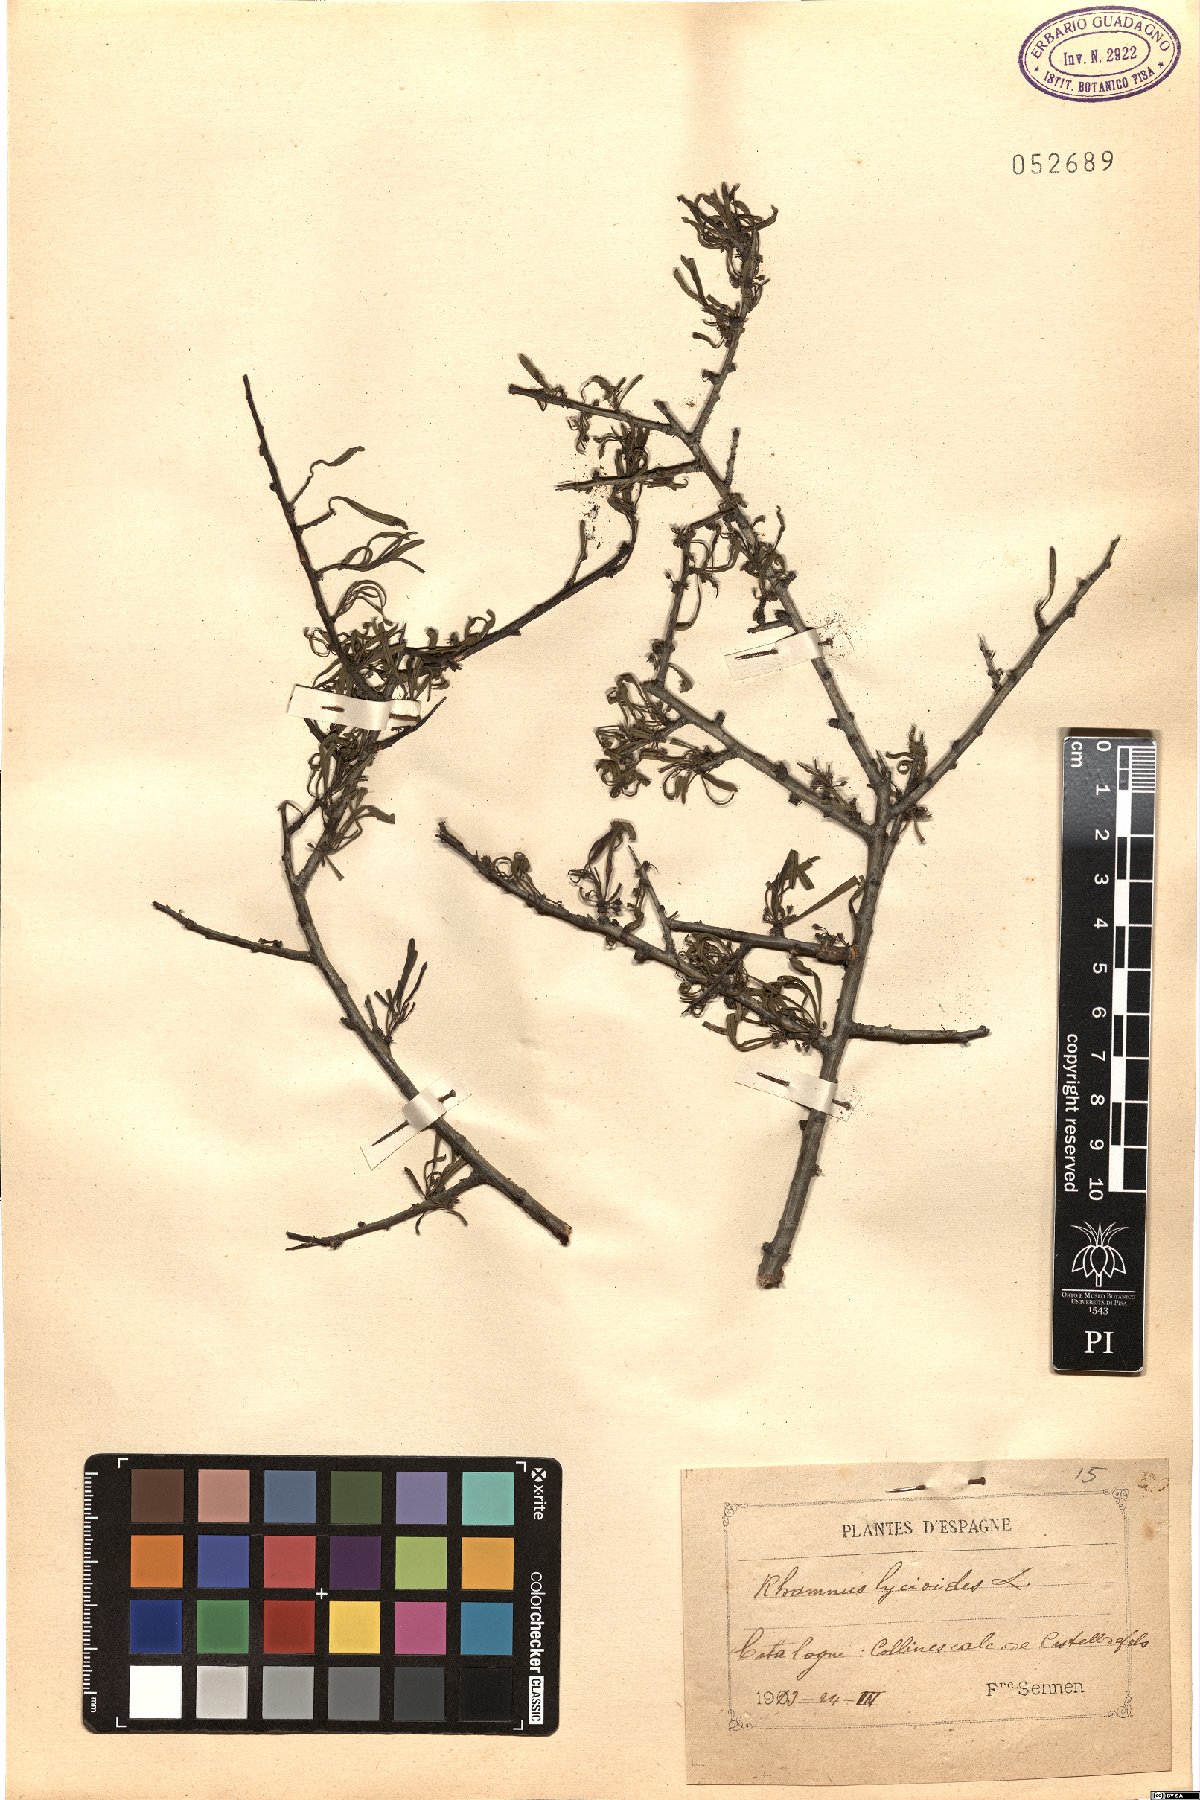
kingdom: Plantae
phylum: Tracheophyta
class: Magnoliopsida
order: Rosales
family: Rhamnaceae
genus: Rhamnus
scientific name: Rhamnus lycioides
